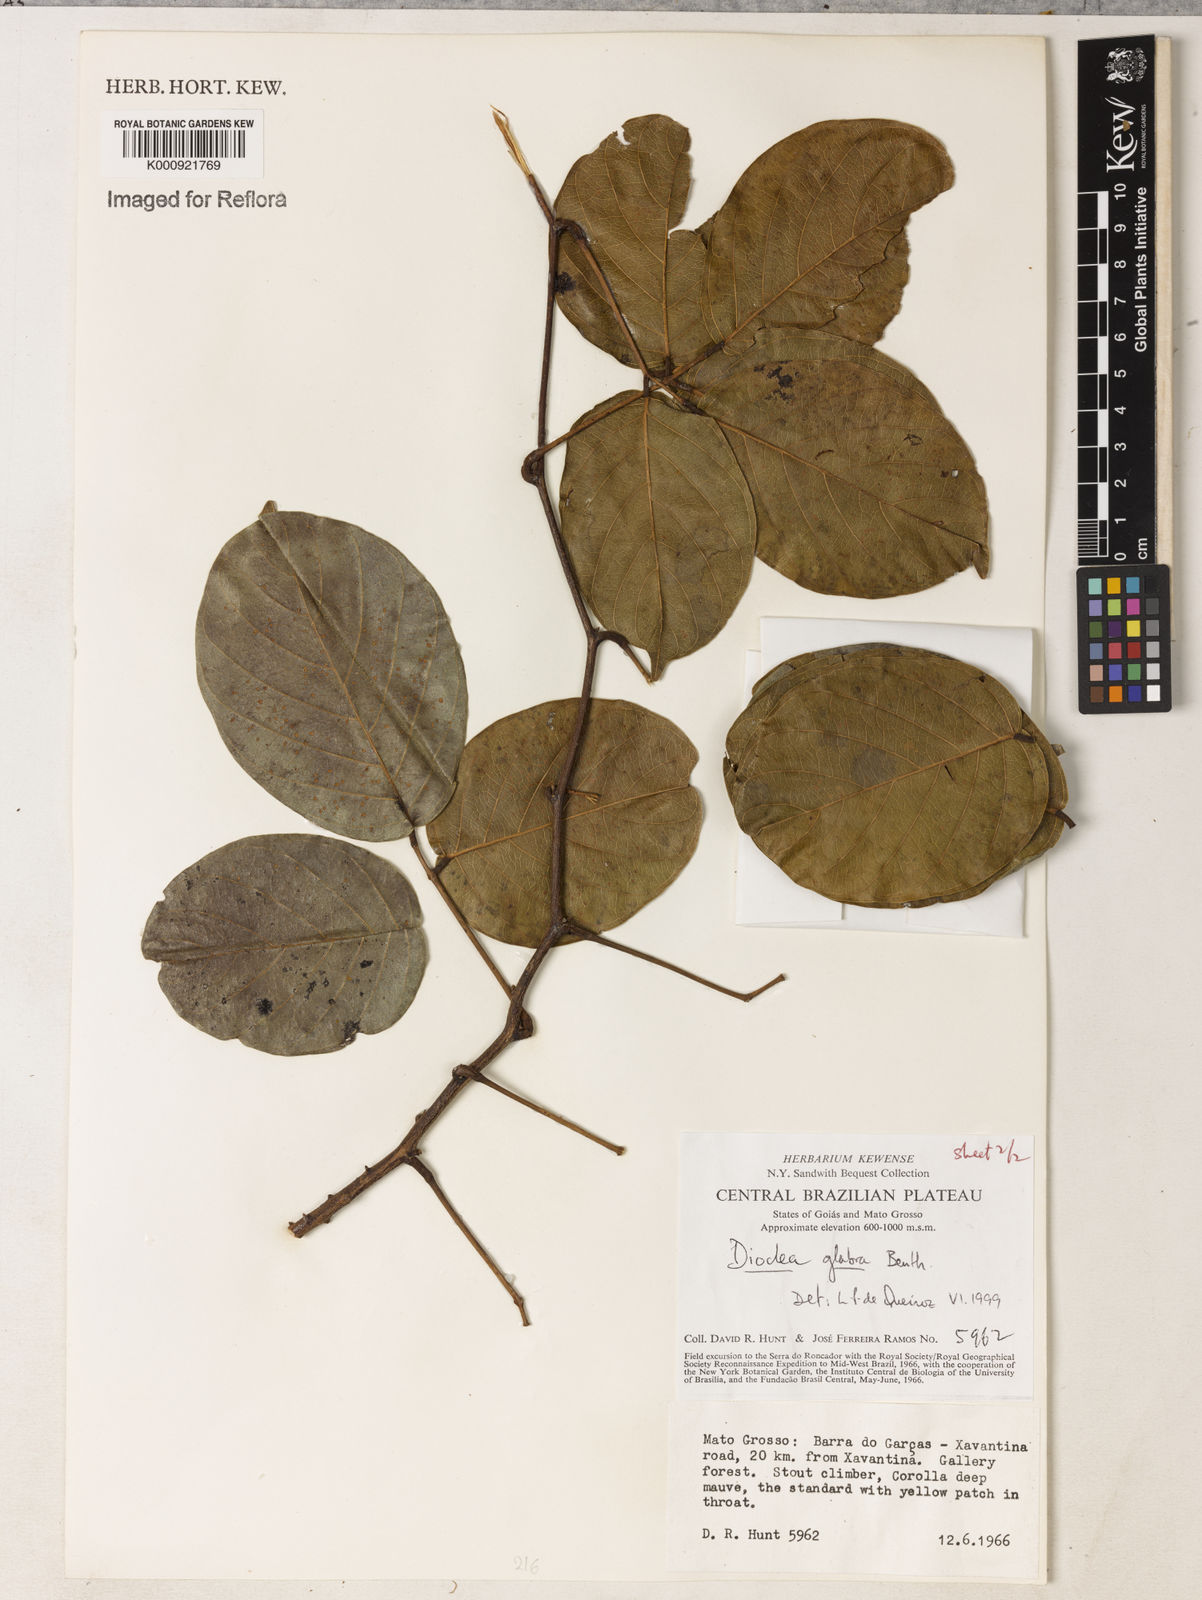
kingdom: Plantae
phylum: Tracheophyta
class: Magnoliopsida
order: Fabales
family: Fabaceae
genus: Macropsychanthus
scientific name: Macropsychanthus glaber
